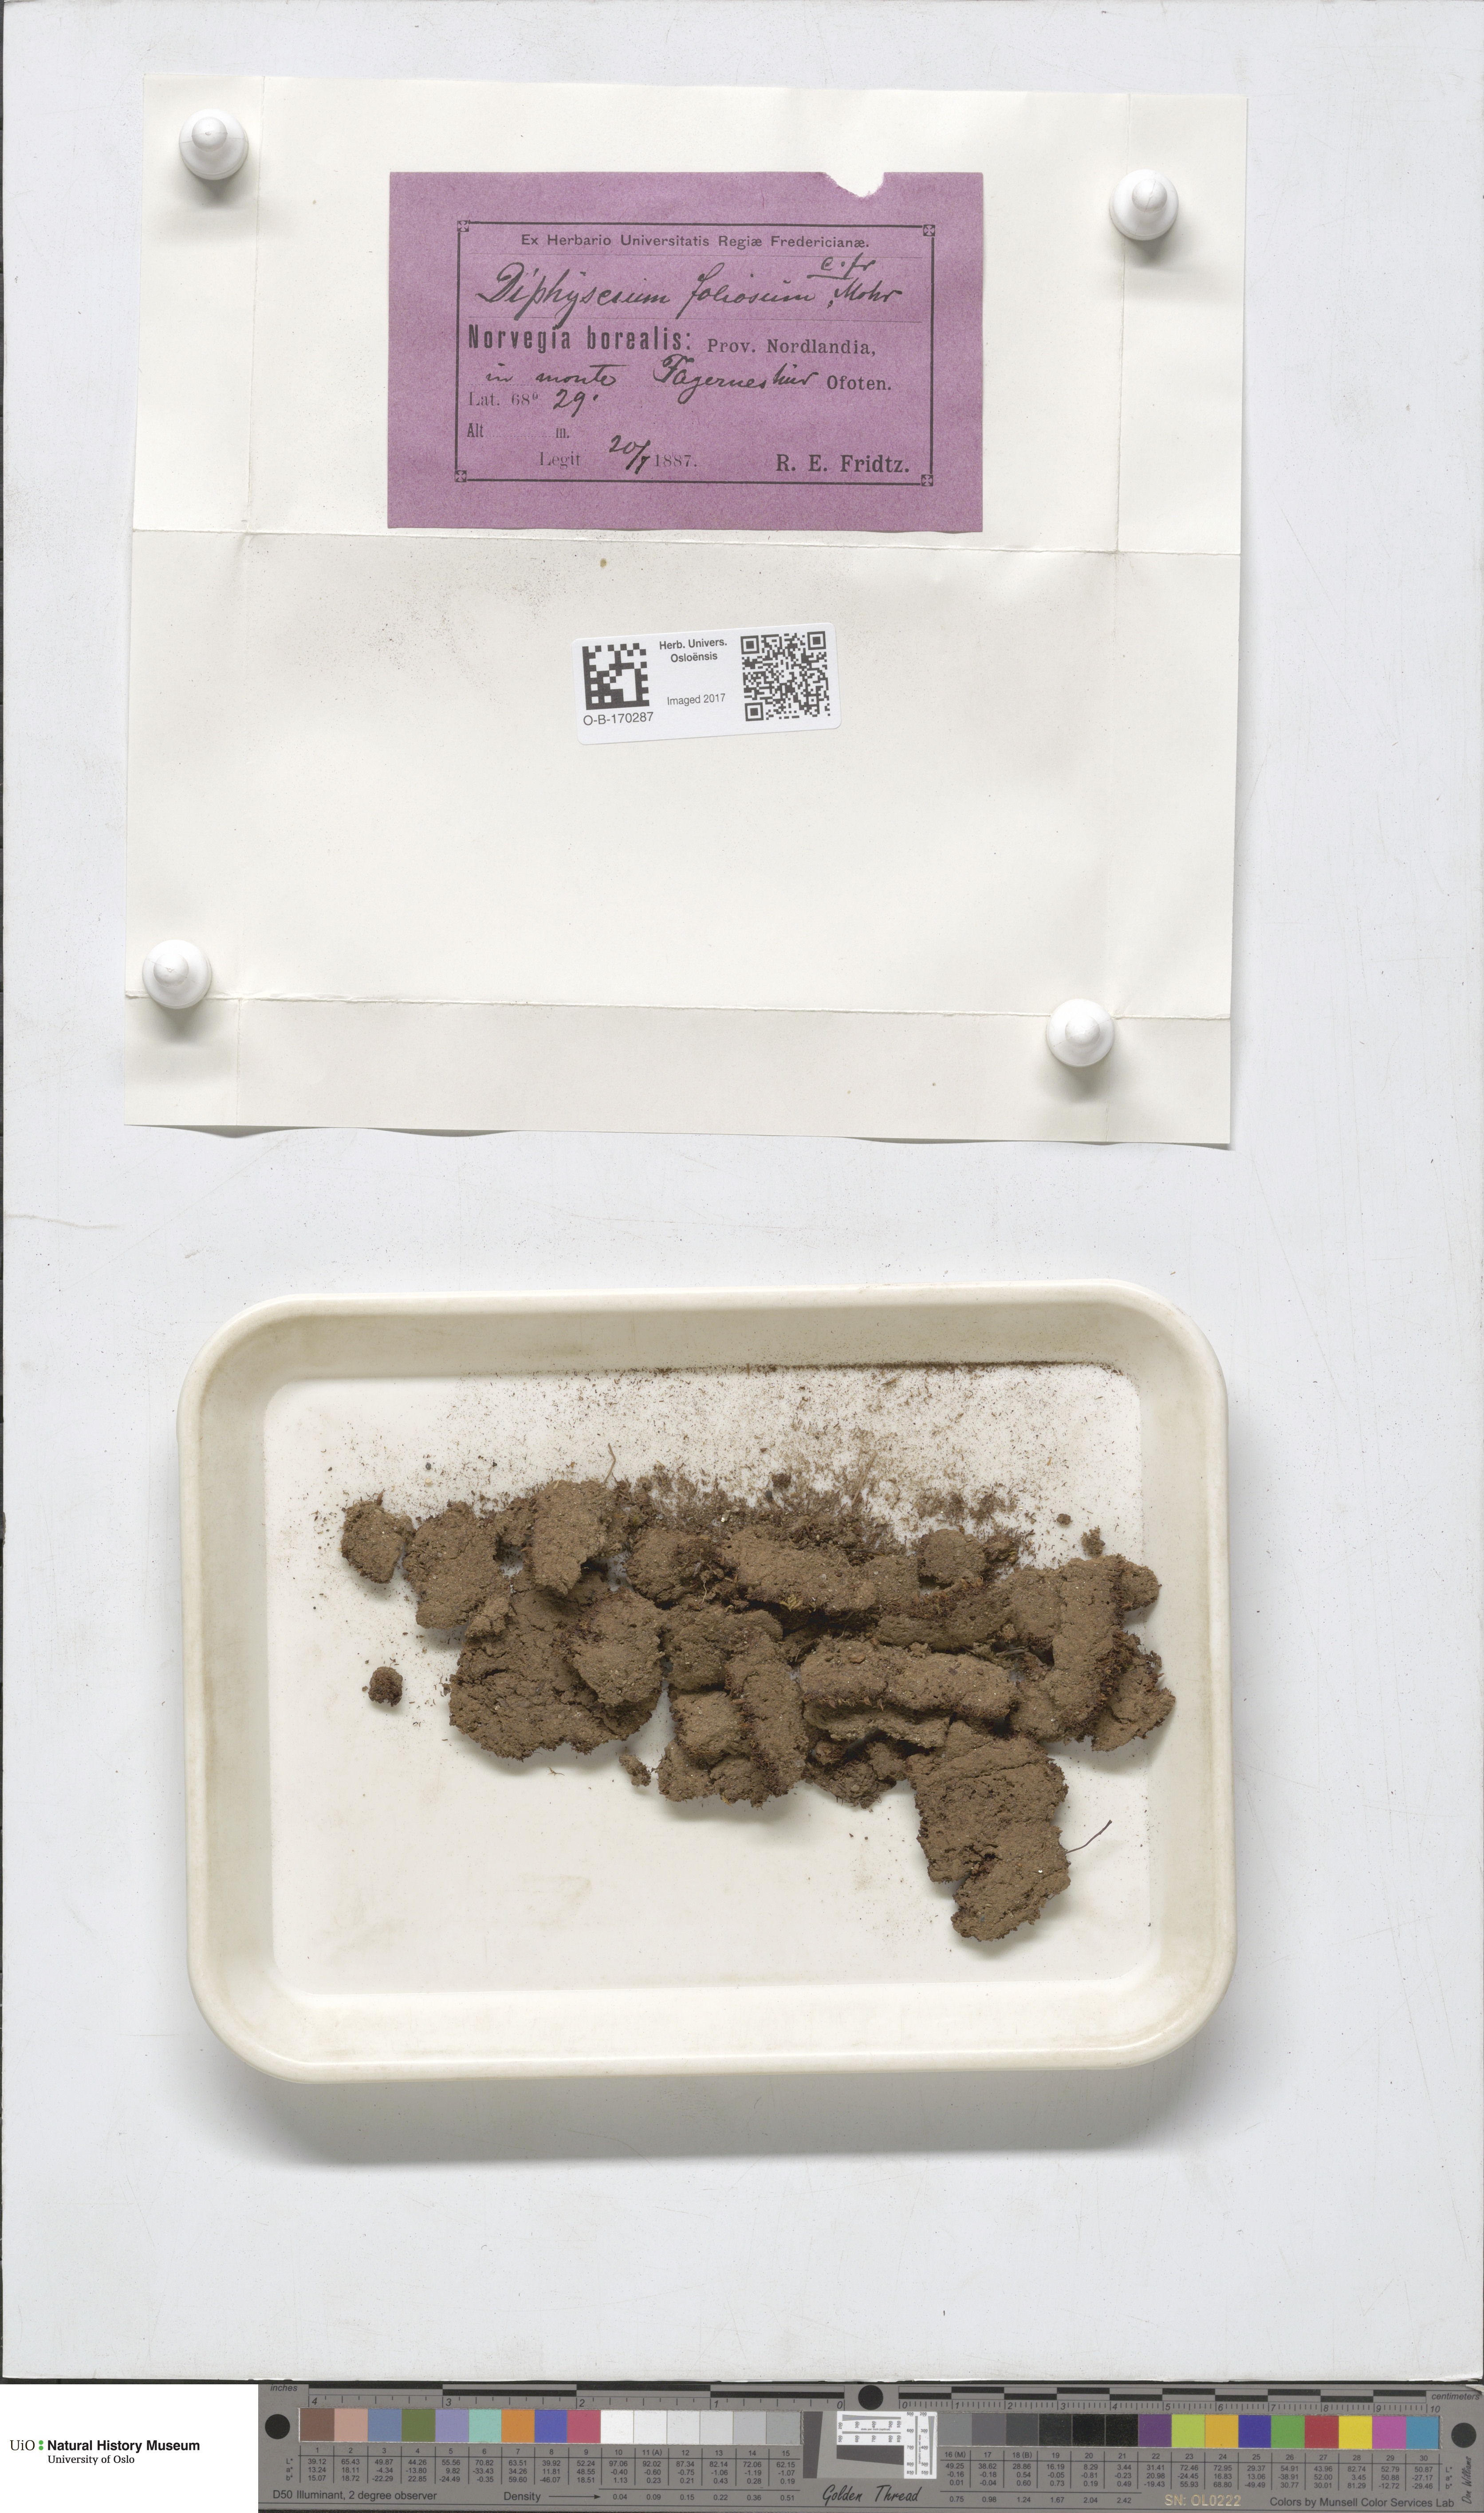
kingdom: Plantae
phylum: Bryophyta
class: Bryopsida
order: Diphysciales
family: Diphysciaceae
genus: Diphyscium
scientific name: Diphyscium foliosum
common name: Nut moss
